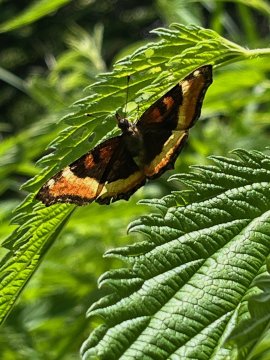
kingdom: Animalia
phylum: Arthropoda
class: Insecta
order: Lepidoptera
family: Nymphalidae
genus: Aglais
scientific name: Aglais milberti
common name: Milbert's Tortoiseshell
